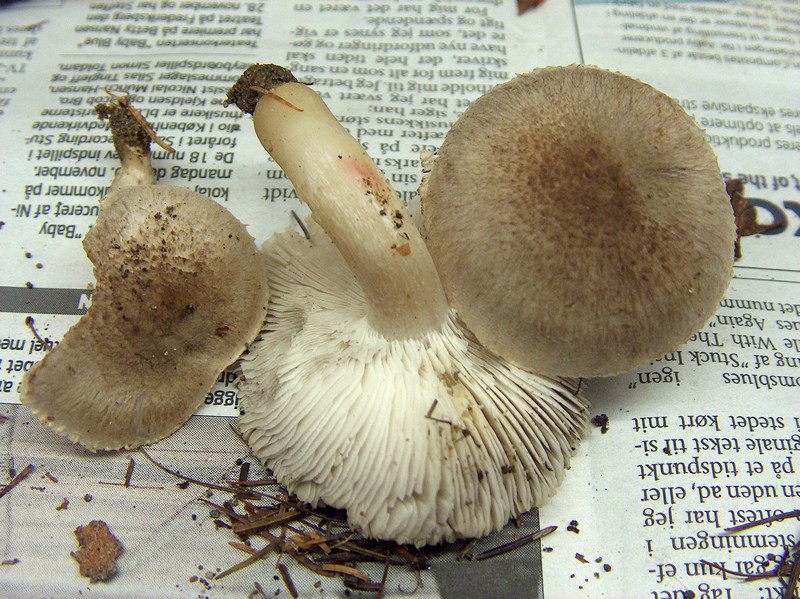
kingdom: Fungi
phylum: Basidiomycota
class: Agaricomycetes
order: Agaricales
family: Tricholomataceae
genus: Tricholoma
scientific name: Tricholoma scalpturatum
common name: gulplettet ridderhat
